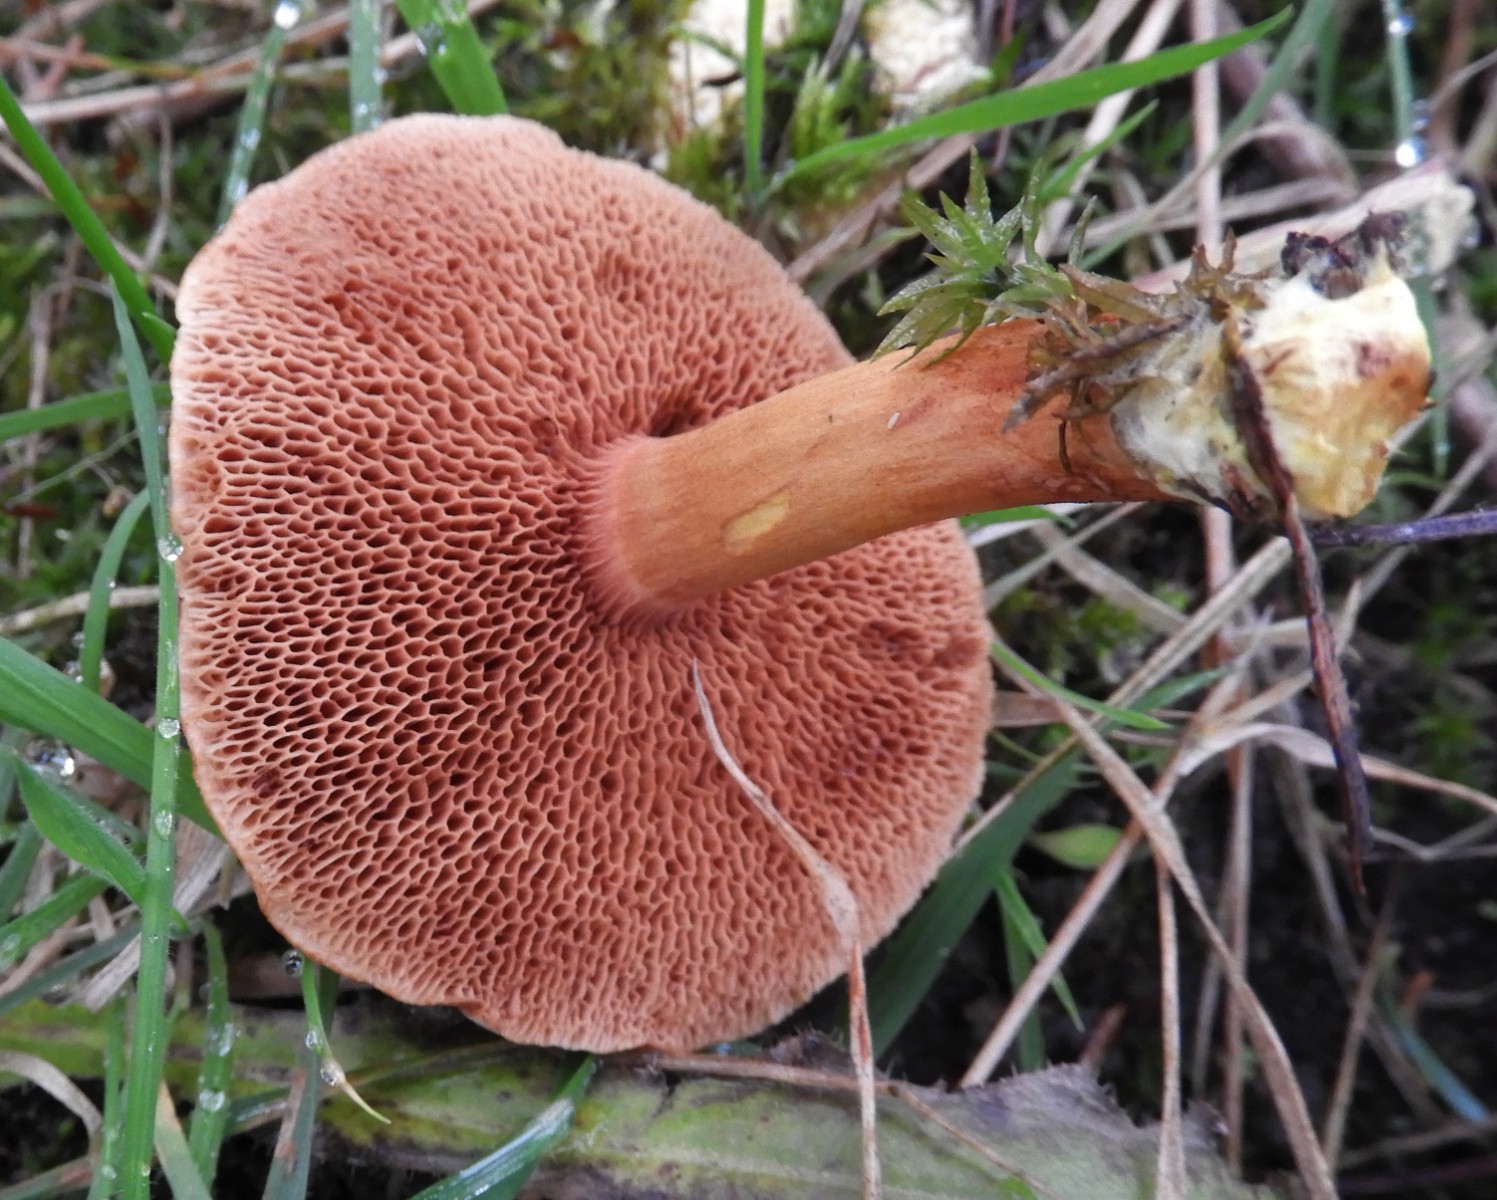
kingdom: Fungi
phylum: Basidiomycota
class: Agaricomycetes
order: Boletales
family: Boletaceae
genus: Chalciporus
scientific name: Chalciporus piperatus
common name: peberrørhat
